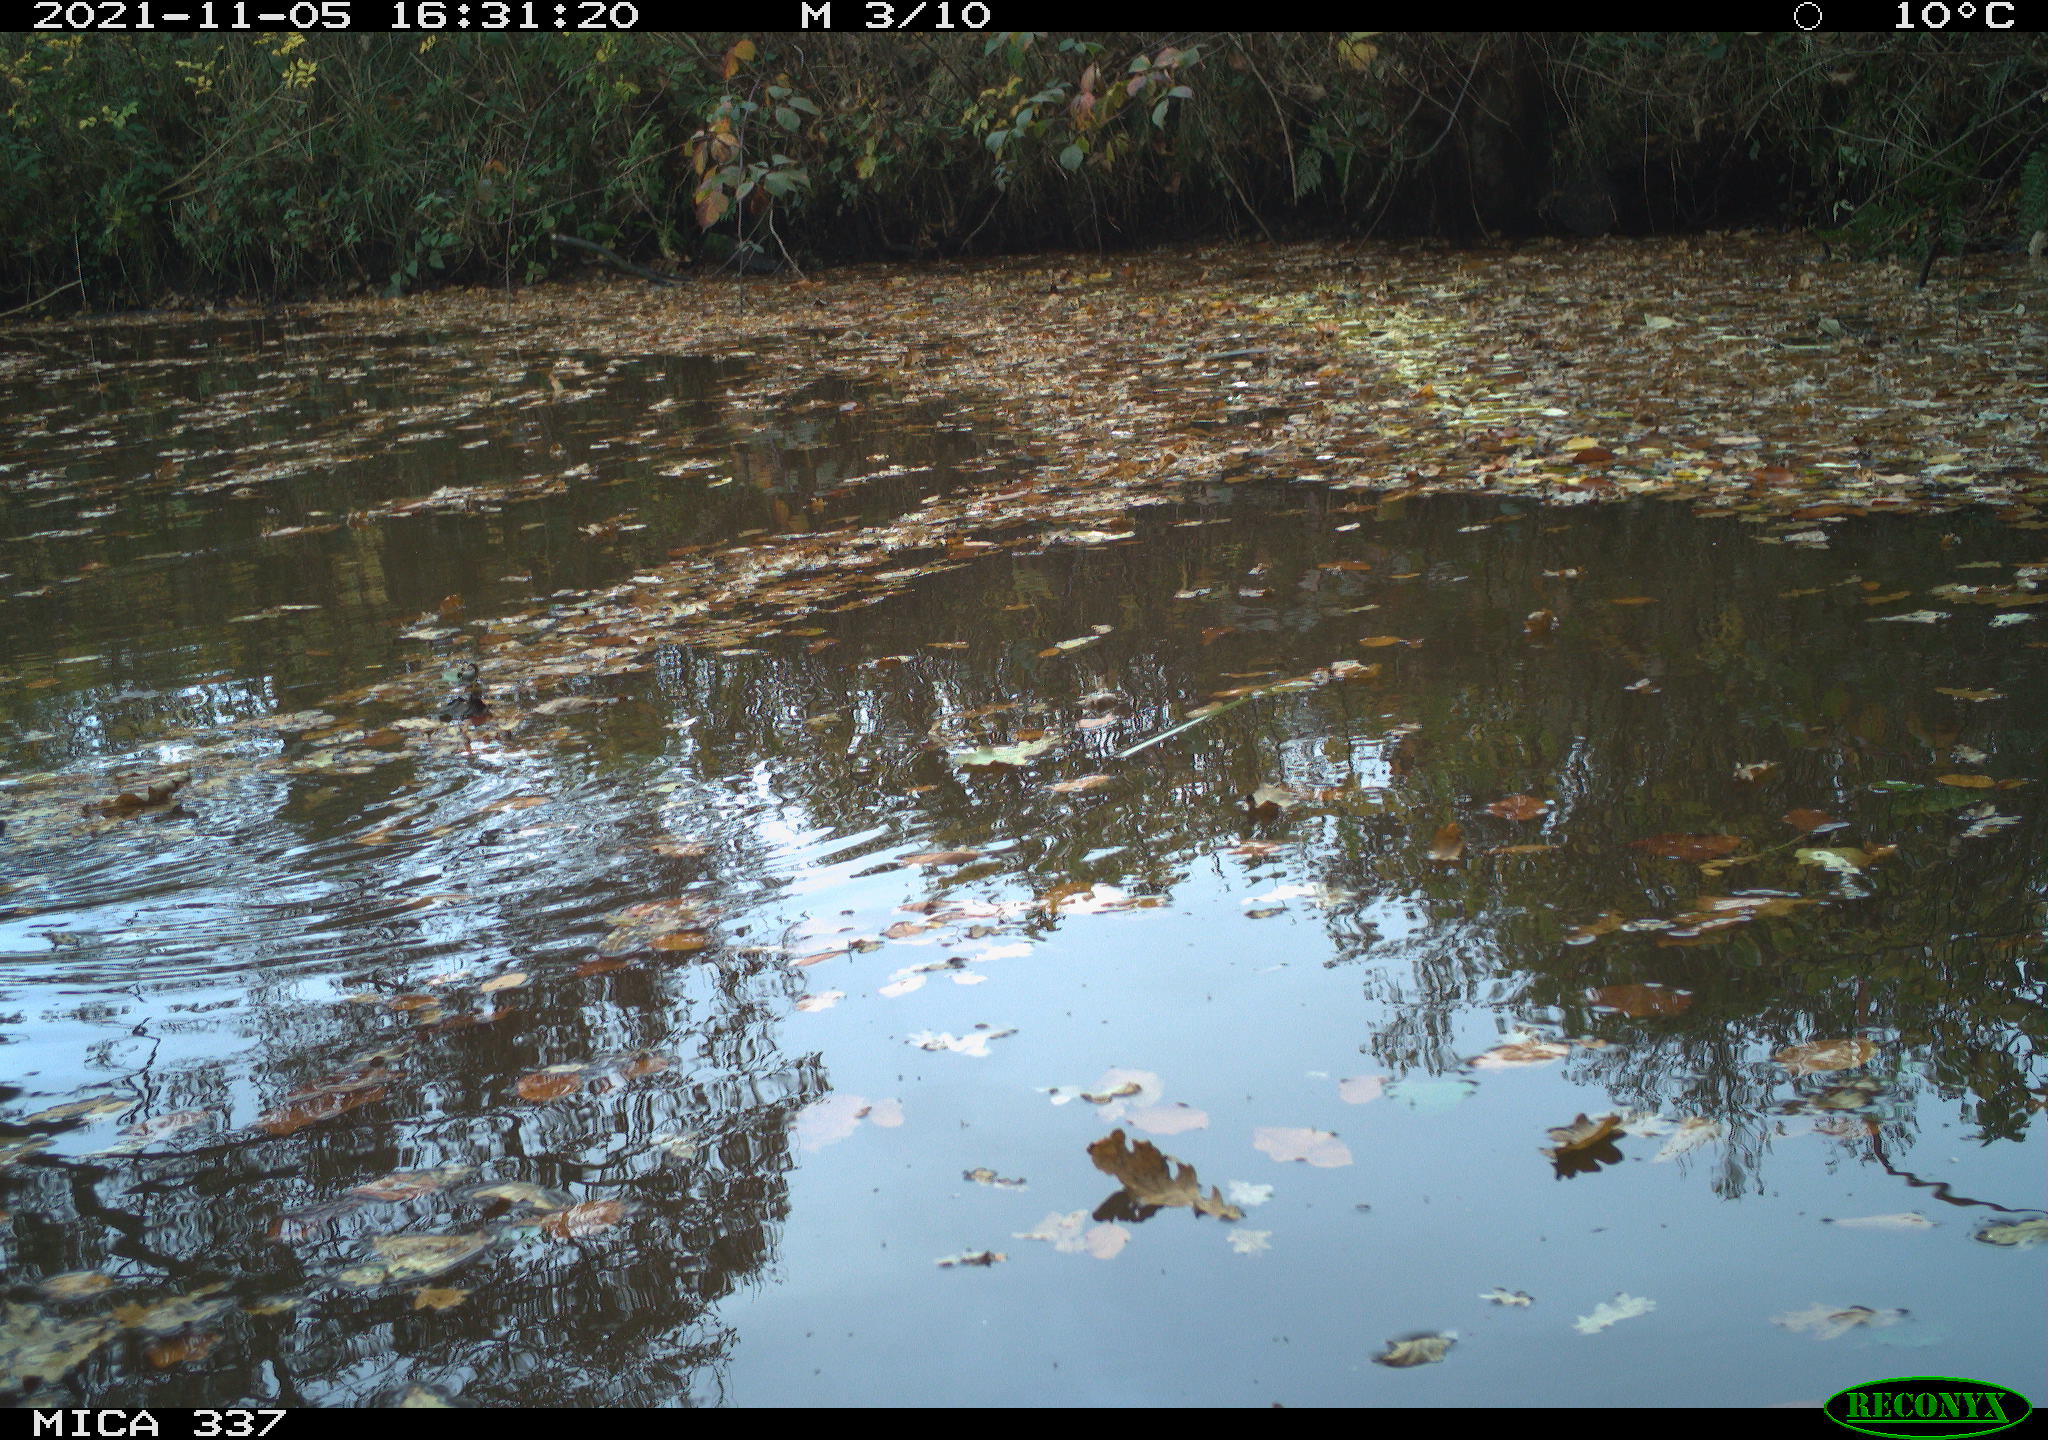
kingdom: Animalia
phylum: Chordata
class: Aves
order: Gruiformes
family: Rallidae
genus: Gallinula
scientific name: Gallinula chloropus
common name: Common moorhen
